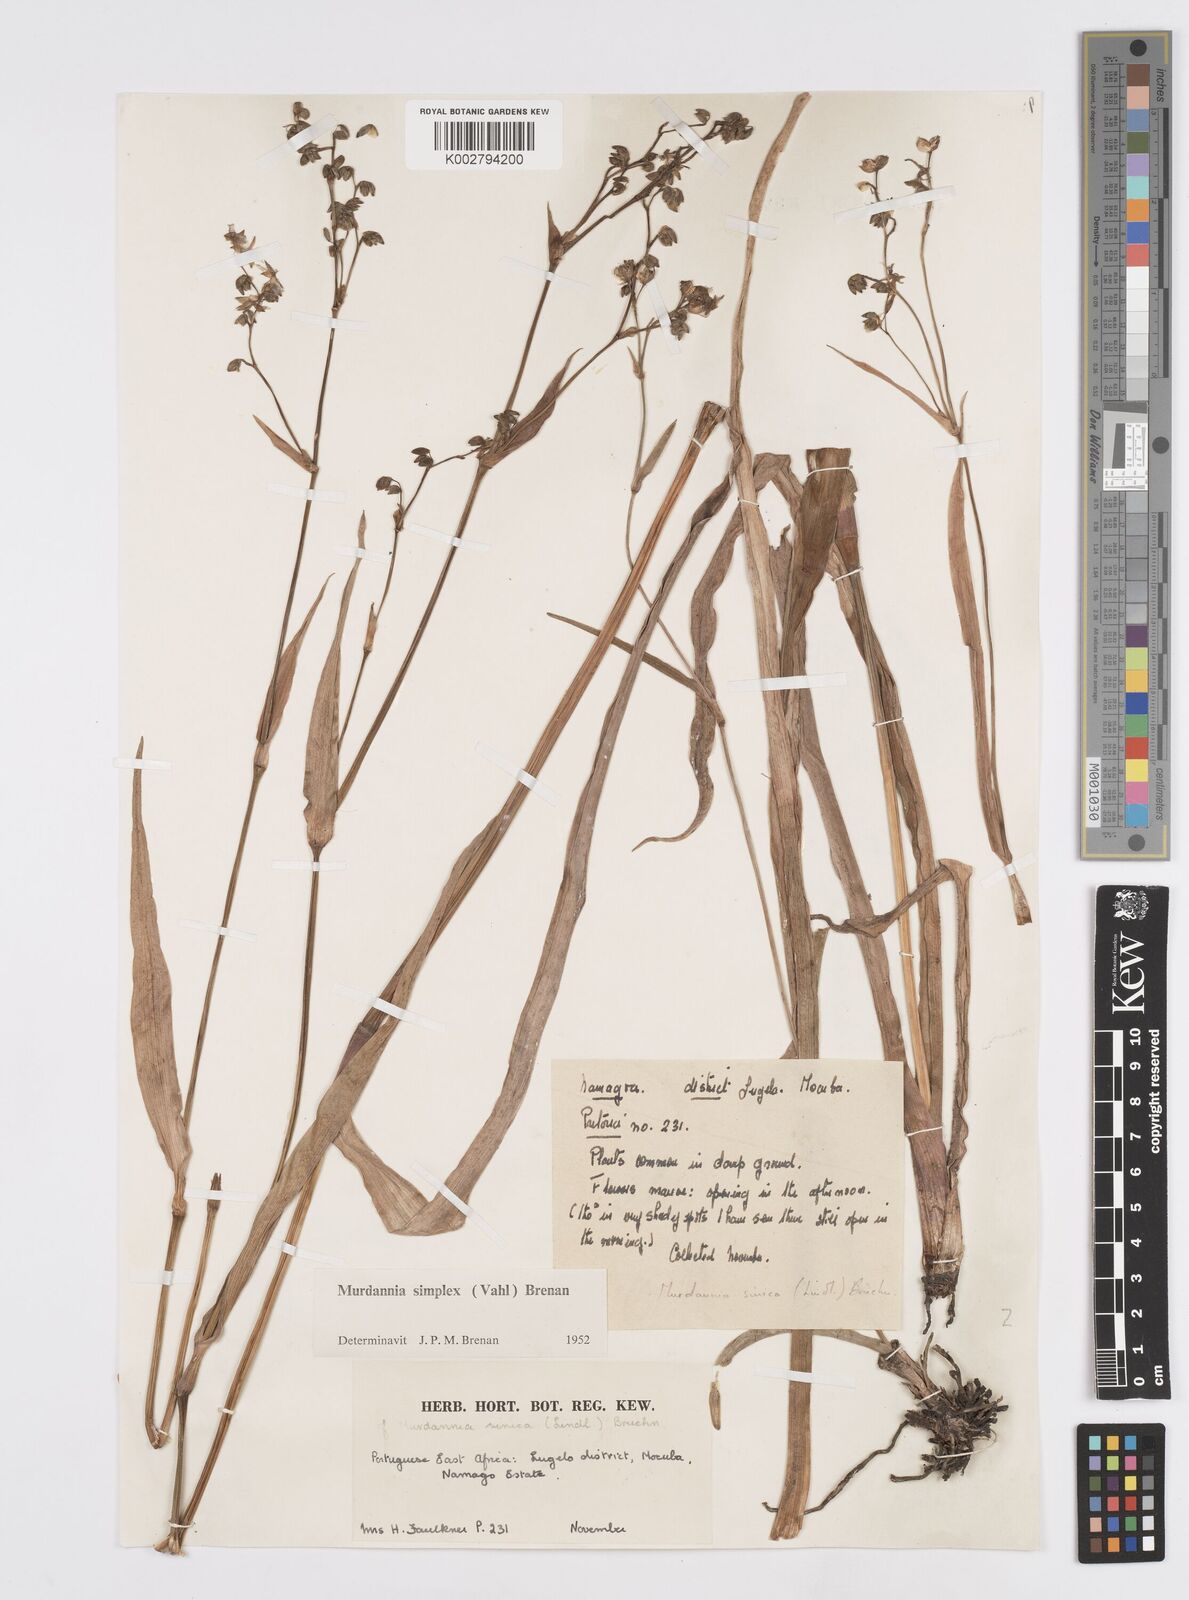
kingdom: Plantae
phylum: Tracheophyta
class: Liliopsida
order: Commelinales
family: Commelinaceae
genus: Murdannia
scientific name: Murdannia simplex
